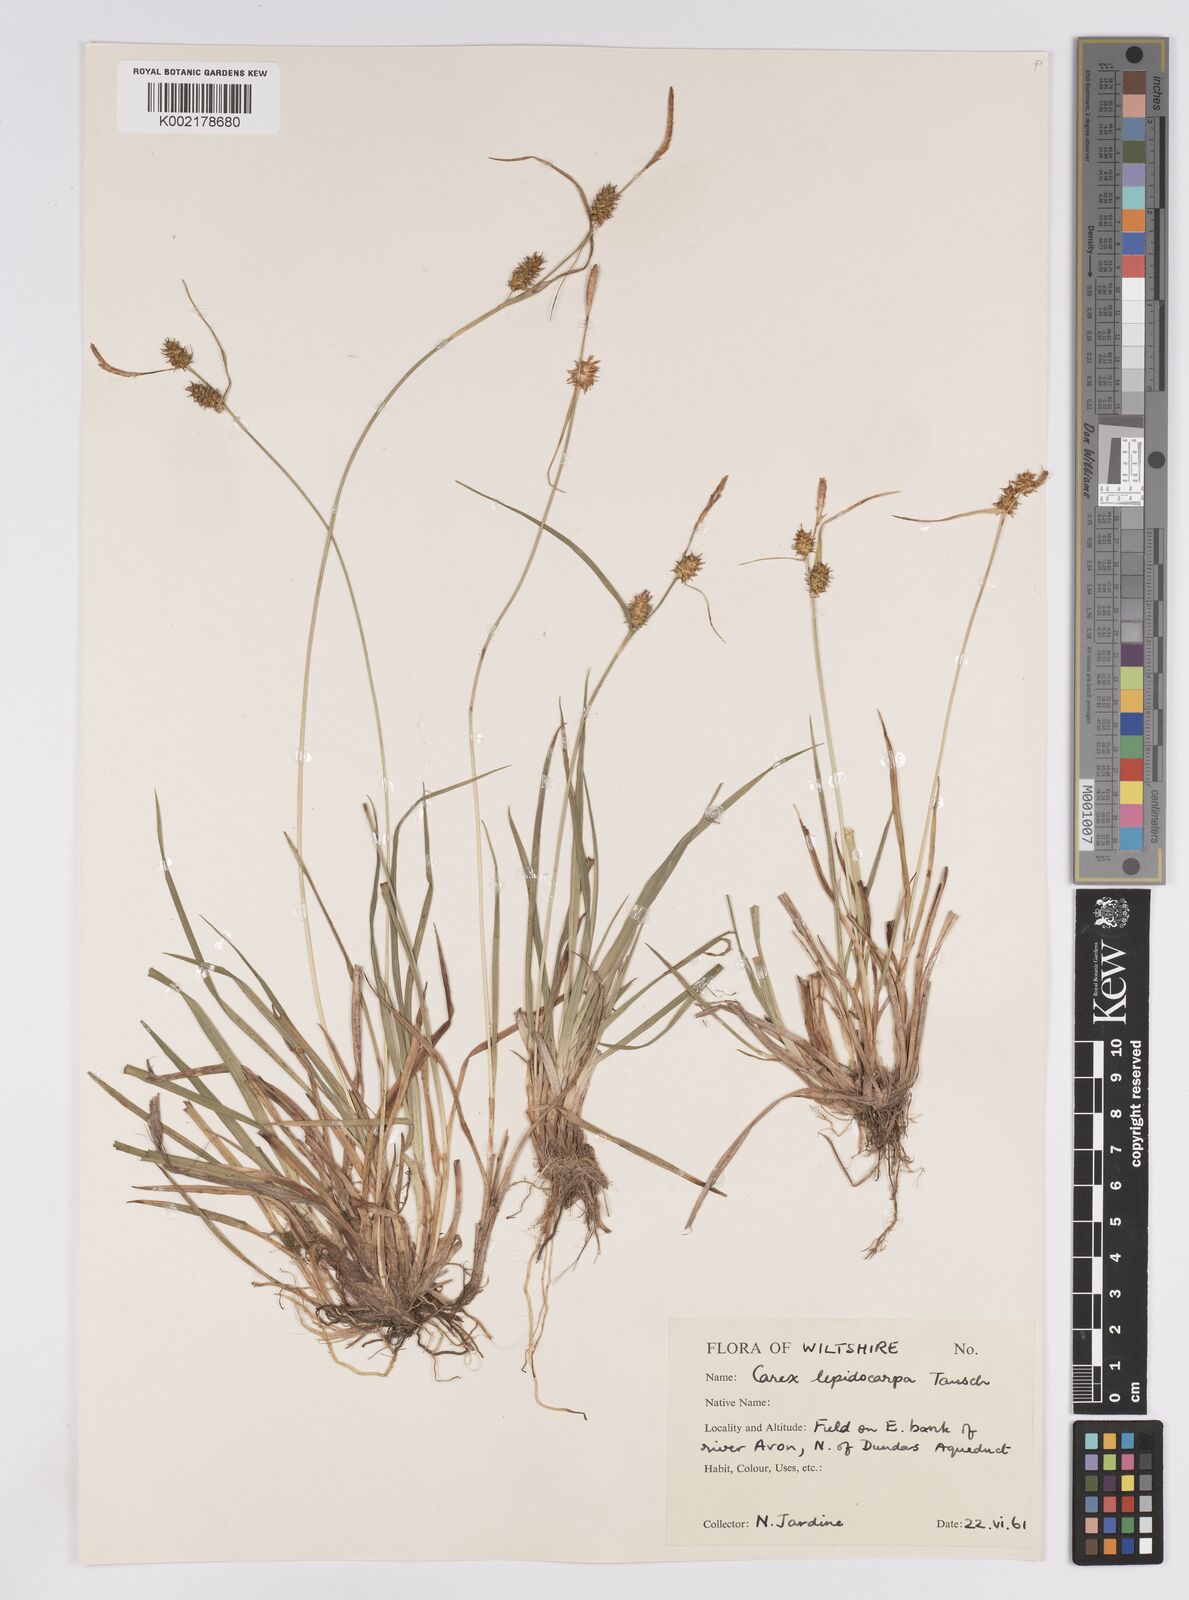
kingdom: Plantae
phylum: Tracheophyta
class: Liliopsida
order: Poales
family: Cyperaceae
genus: Carex
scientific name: Carex lepidocarpa
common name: Long-stalked yellow-sedge
